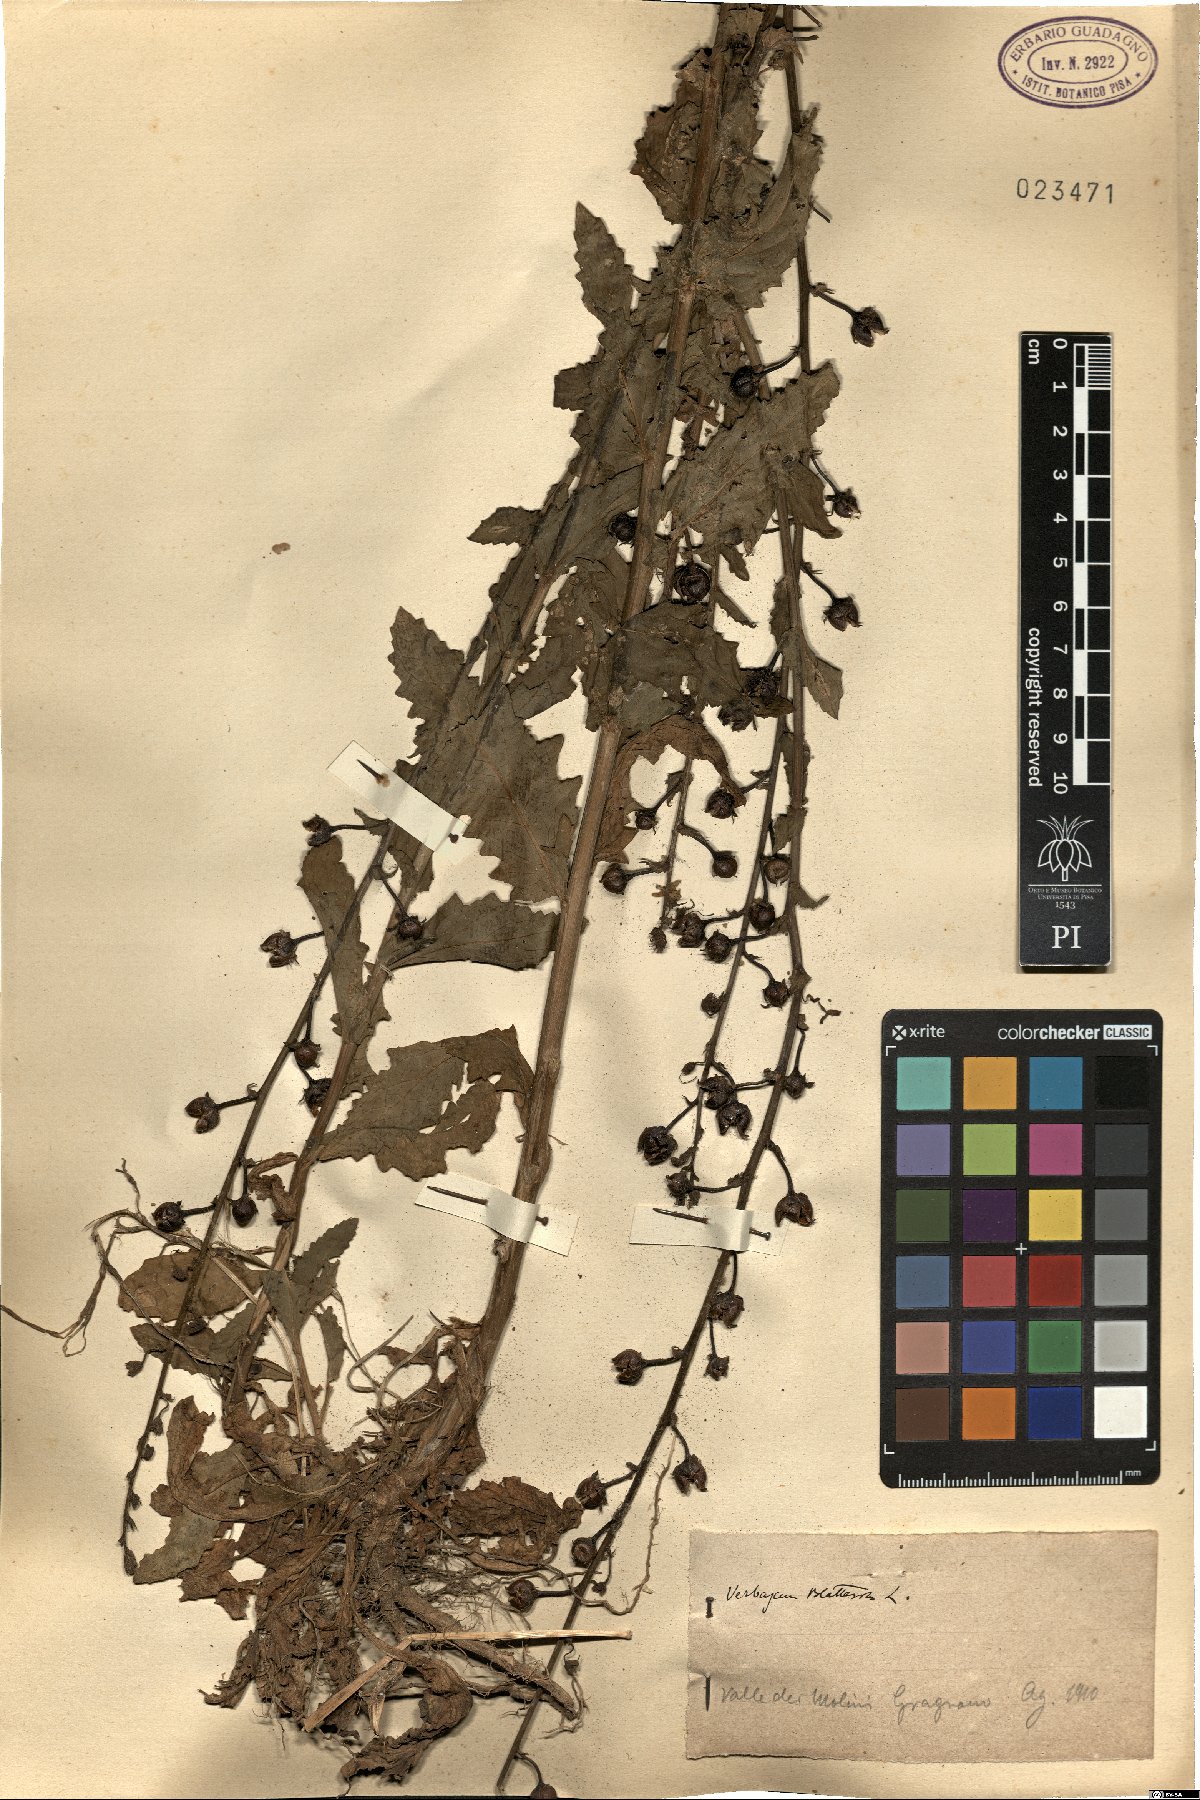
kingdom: Plantae
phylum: Tracheophyta
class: Magnoliopsida
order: Lamiales
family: Scrophulariaceae
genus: Verbascum
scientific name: Verbascum blattaria
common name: Moth mullein
